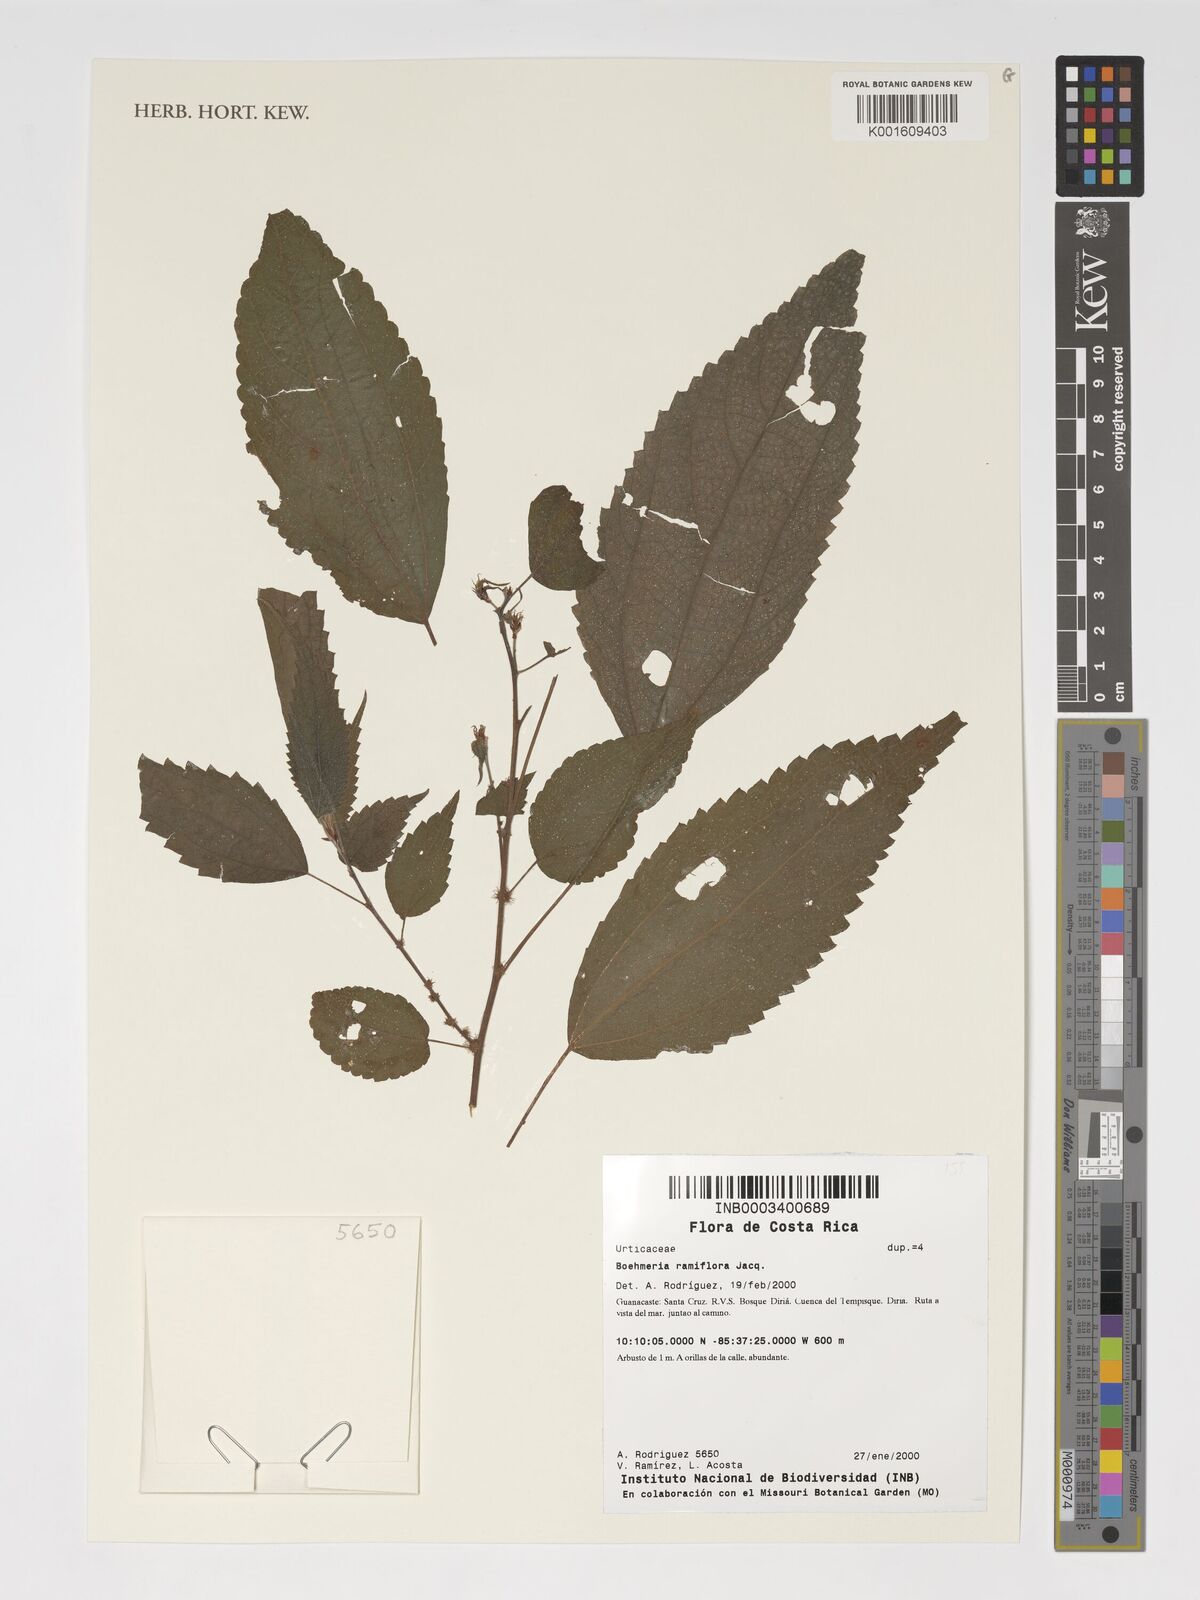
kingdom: Plantae
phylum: Tracheophyta
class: Magnoliopsida
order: Rosales
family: Urticaceae
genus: Boehmeria
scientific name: Boehmeria ramiflora
